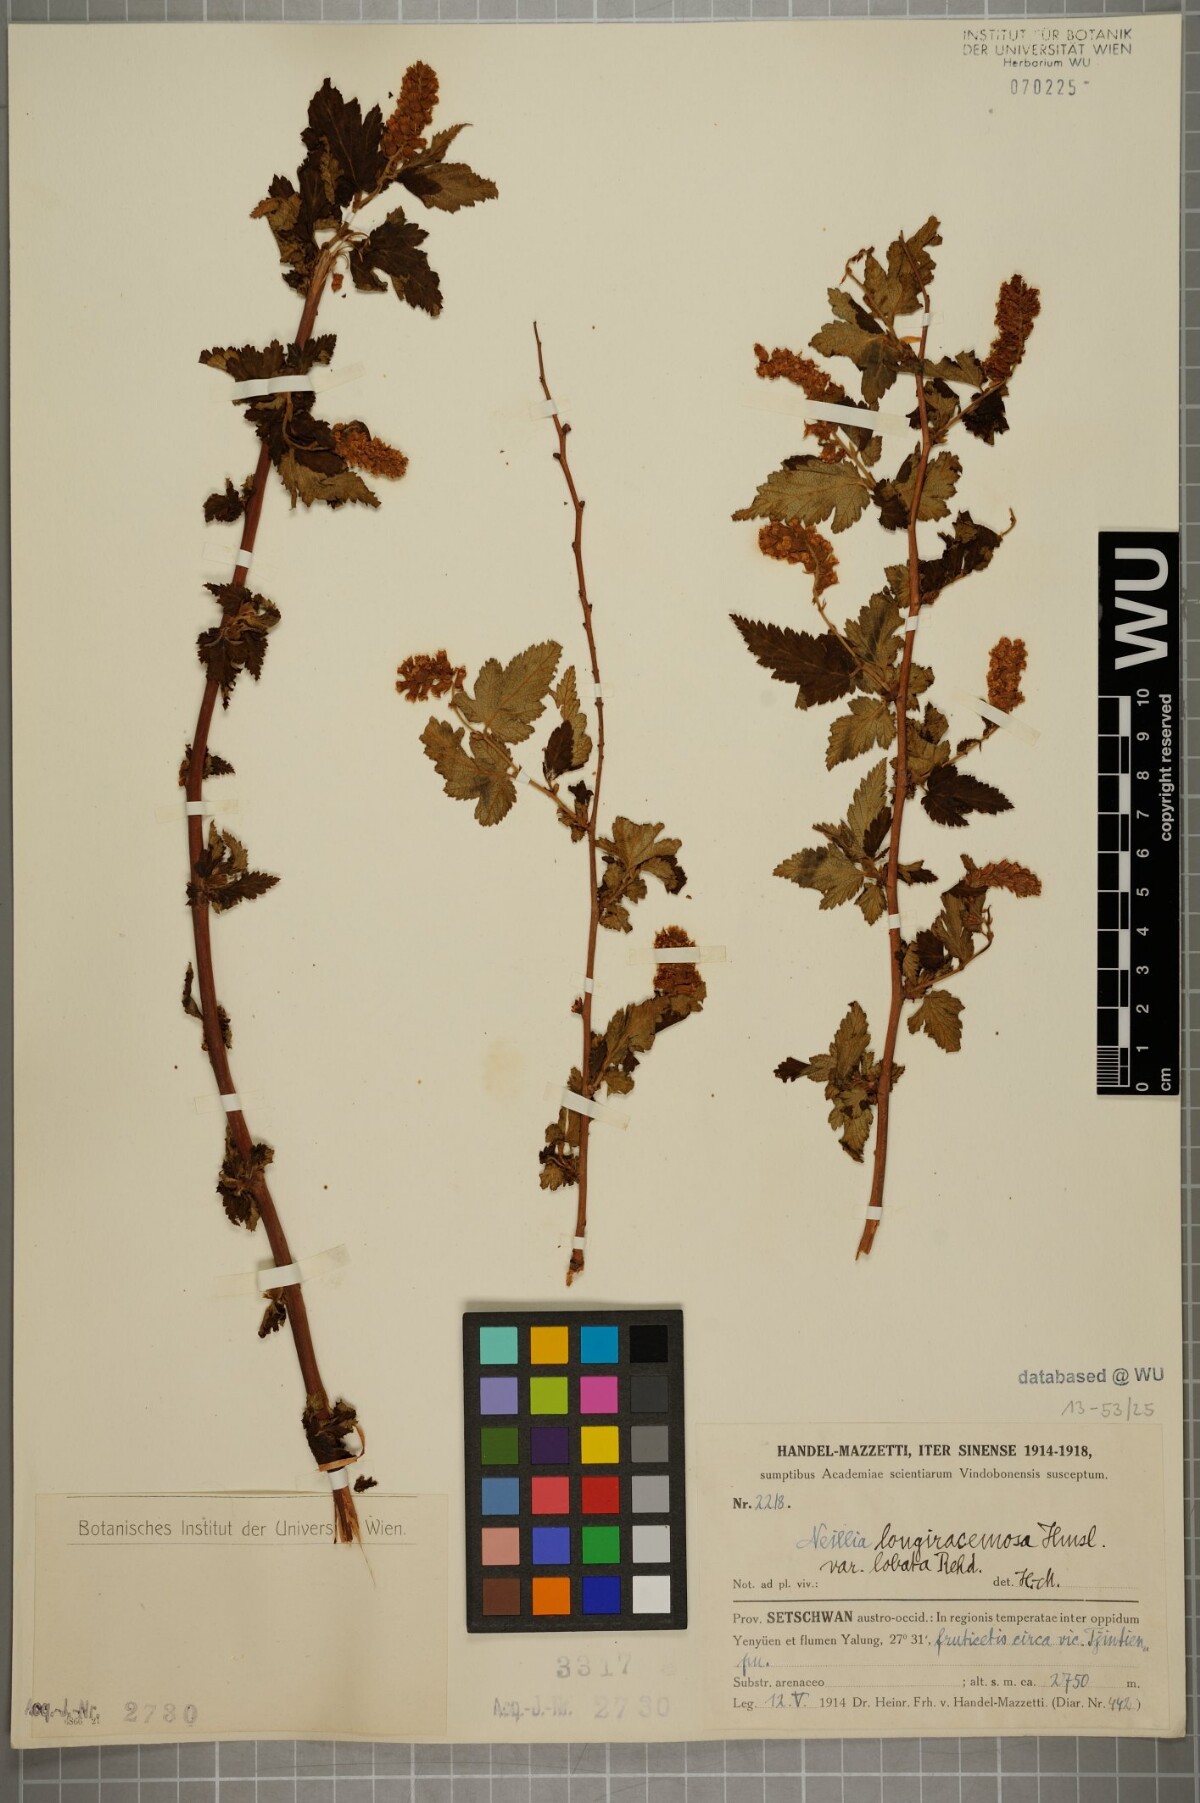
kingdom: Plantae
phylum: Tracheophyta
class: Magnoliopsida
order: Rosales
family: Rosaceae
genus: Neillia
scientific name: Neillia thibetica
